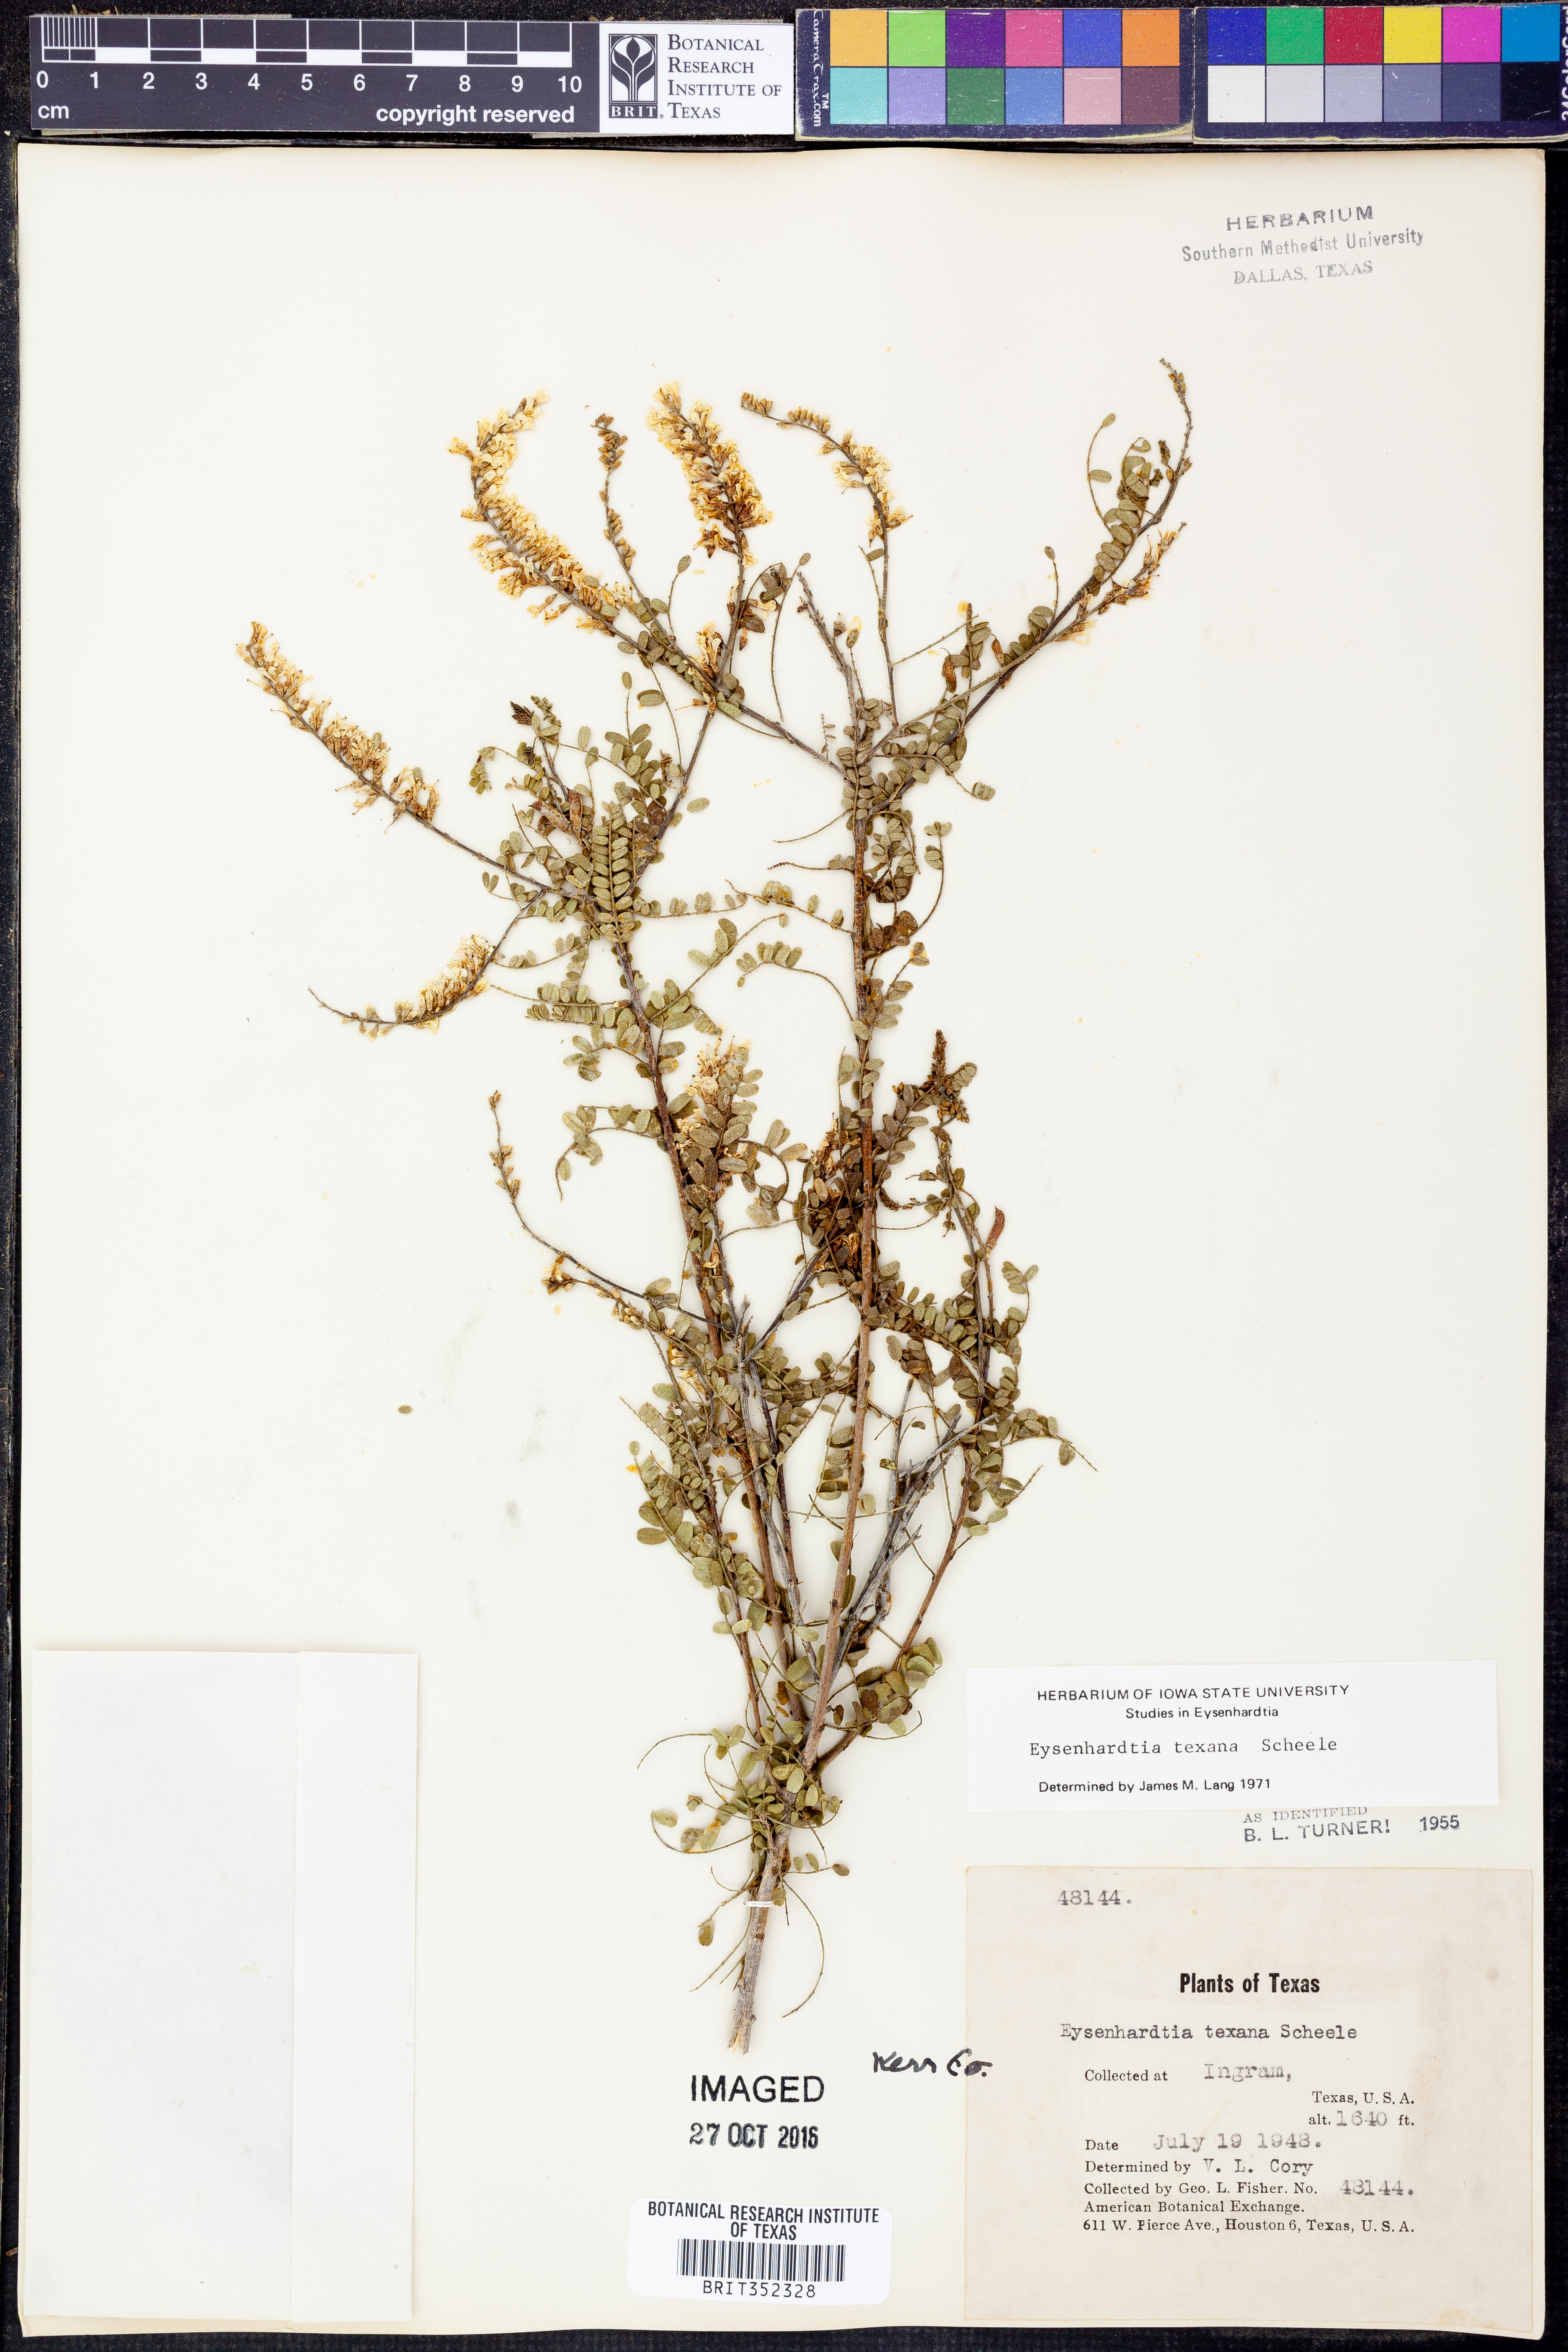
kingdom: Plantae
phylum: Tracheophyta
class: Magnoliopsida
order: Fabales
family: Fabaceae
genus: Eysenhardtia
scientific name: Eysenhardtia texana
